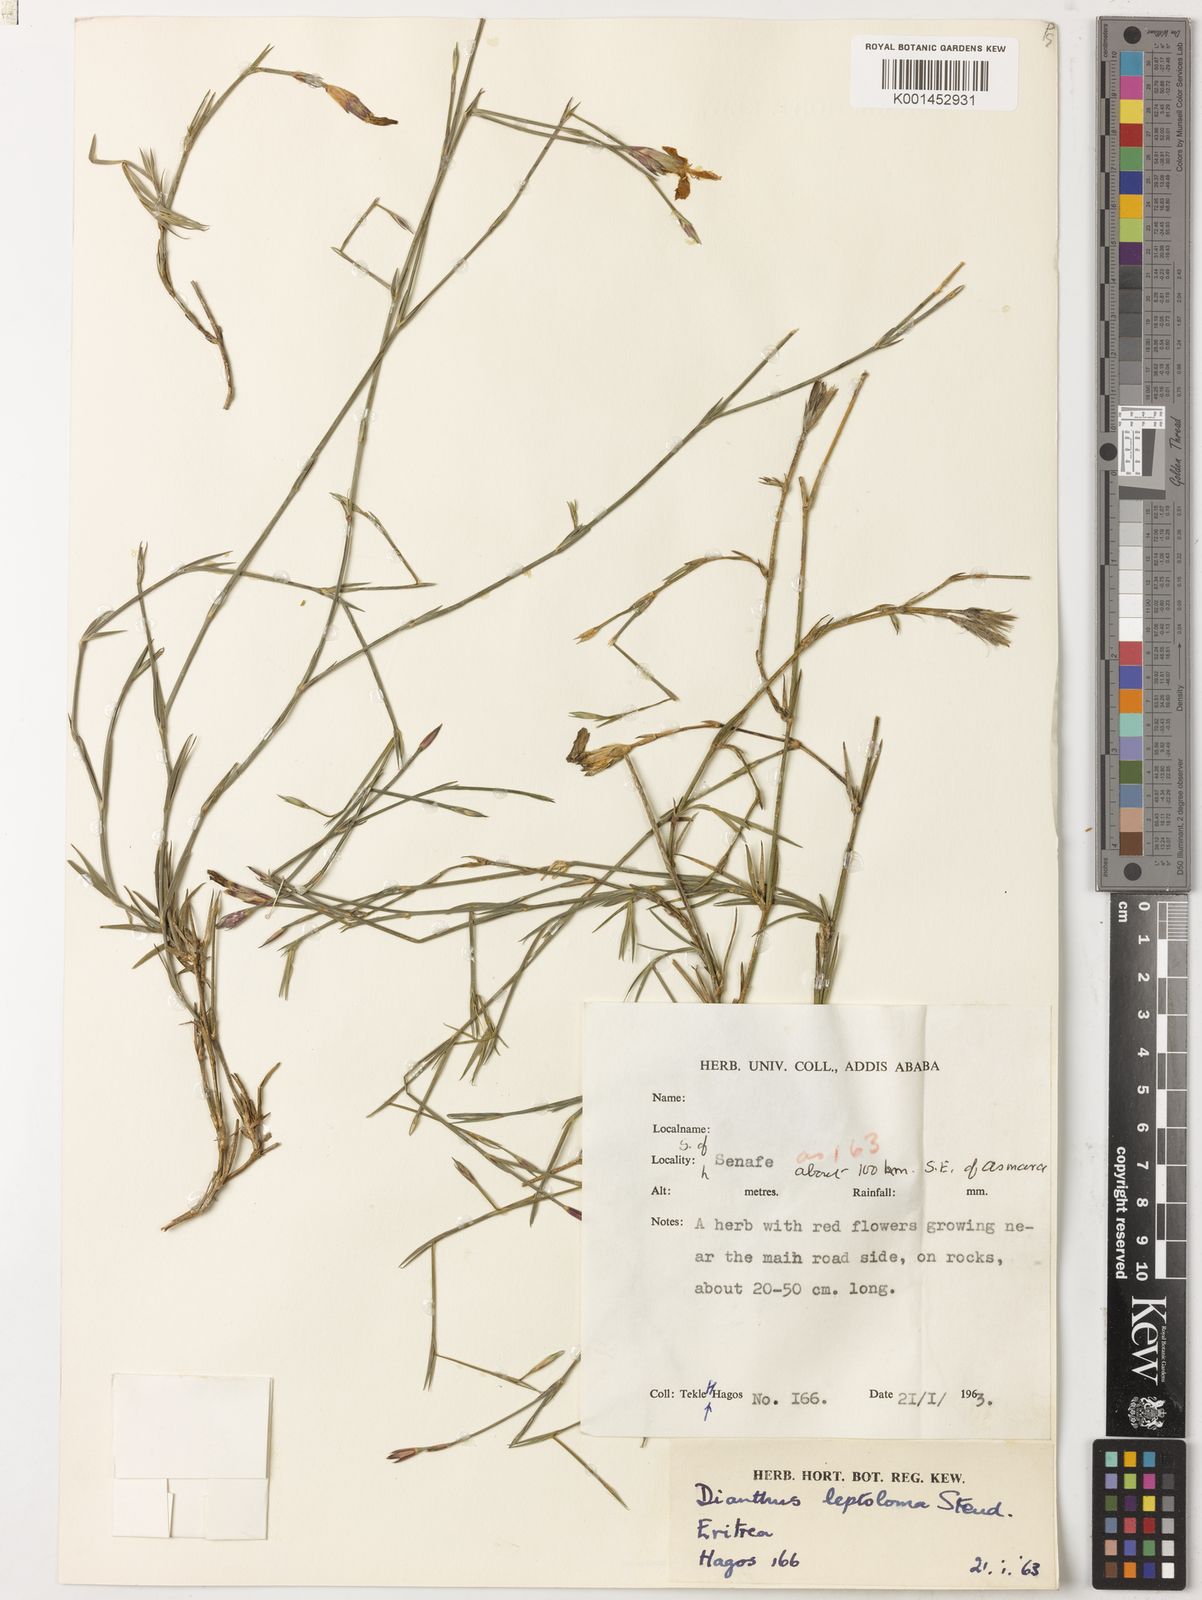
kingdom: Plantae
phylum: Tracheophyta
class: Magnoliopsida
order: Caryophyllales
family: Caryophyllaceae
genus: Dianthus
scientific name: Dianthus leptoloma
